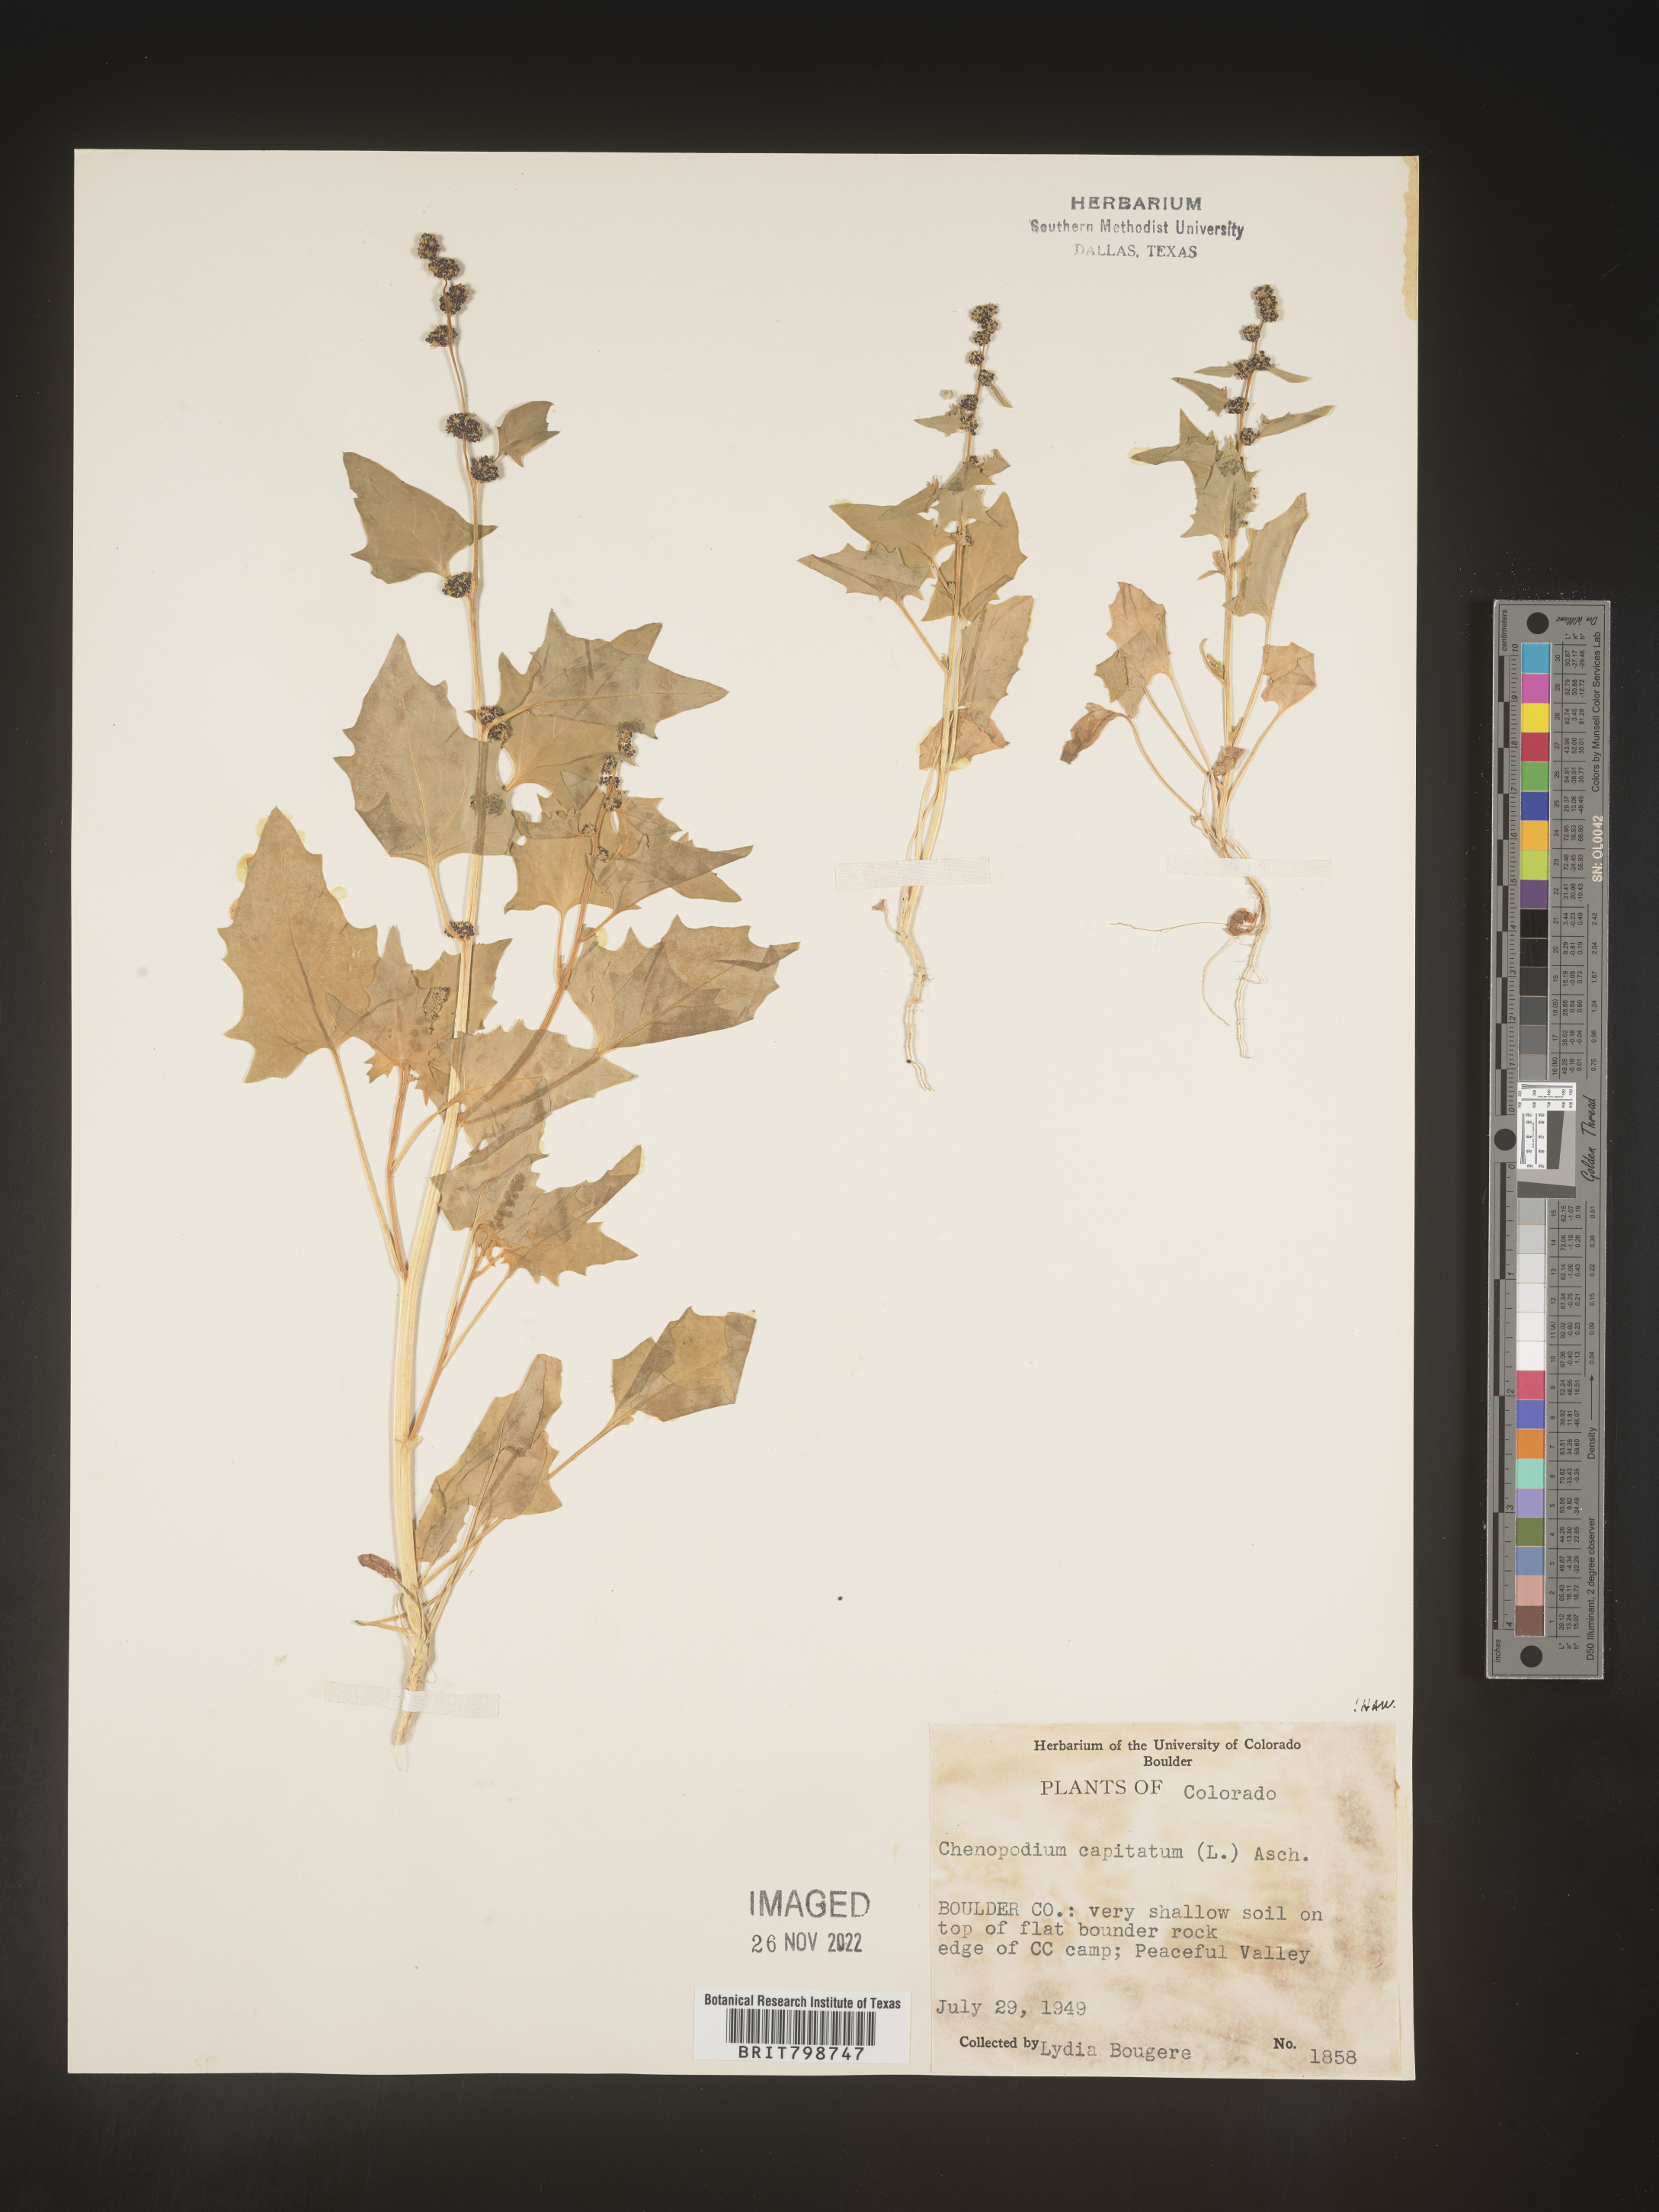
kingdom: Plantae
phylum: Tracheophyta
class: Magnoliopsida
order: Caryophyllales
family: Amaranthaceae
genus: Blitum
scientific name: Blitum capitatum
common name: Strawberry-blight
